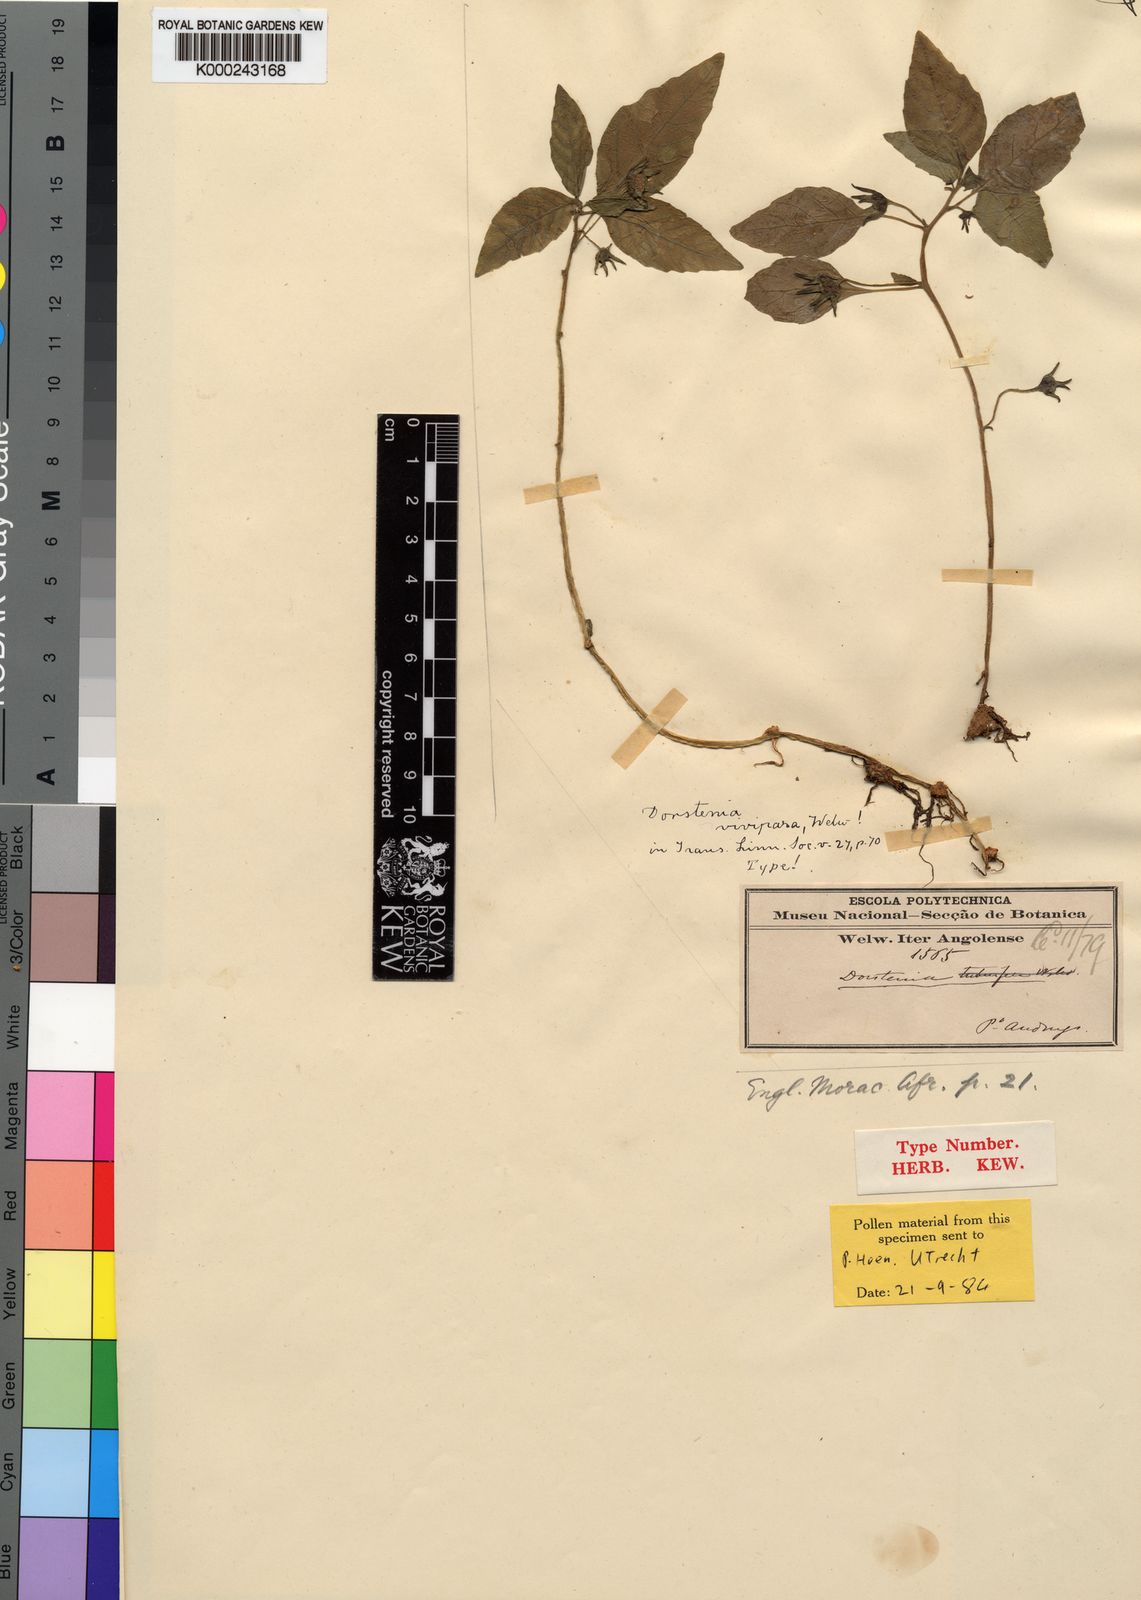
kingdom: Plantae
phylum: Tracheophyta
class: Magnoliopsida
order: Rosales
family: Moraceae
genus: Dorstenia
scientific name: Dorstenia vivipara
